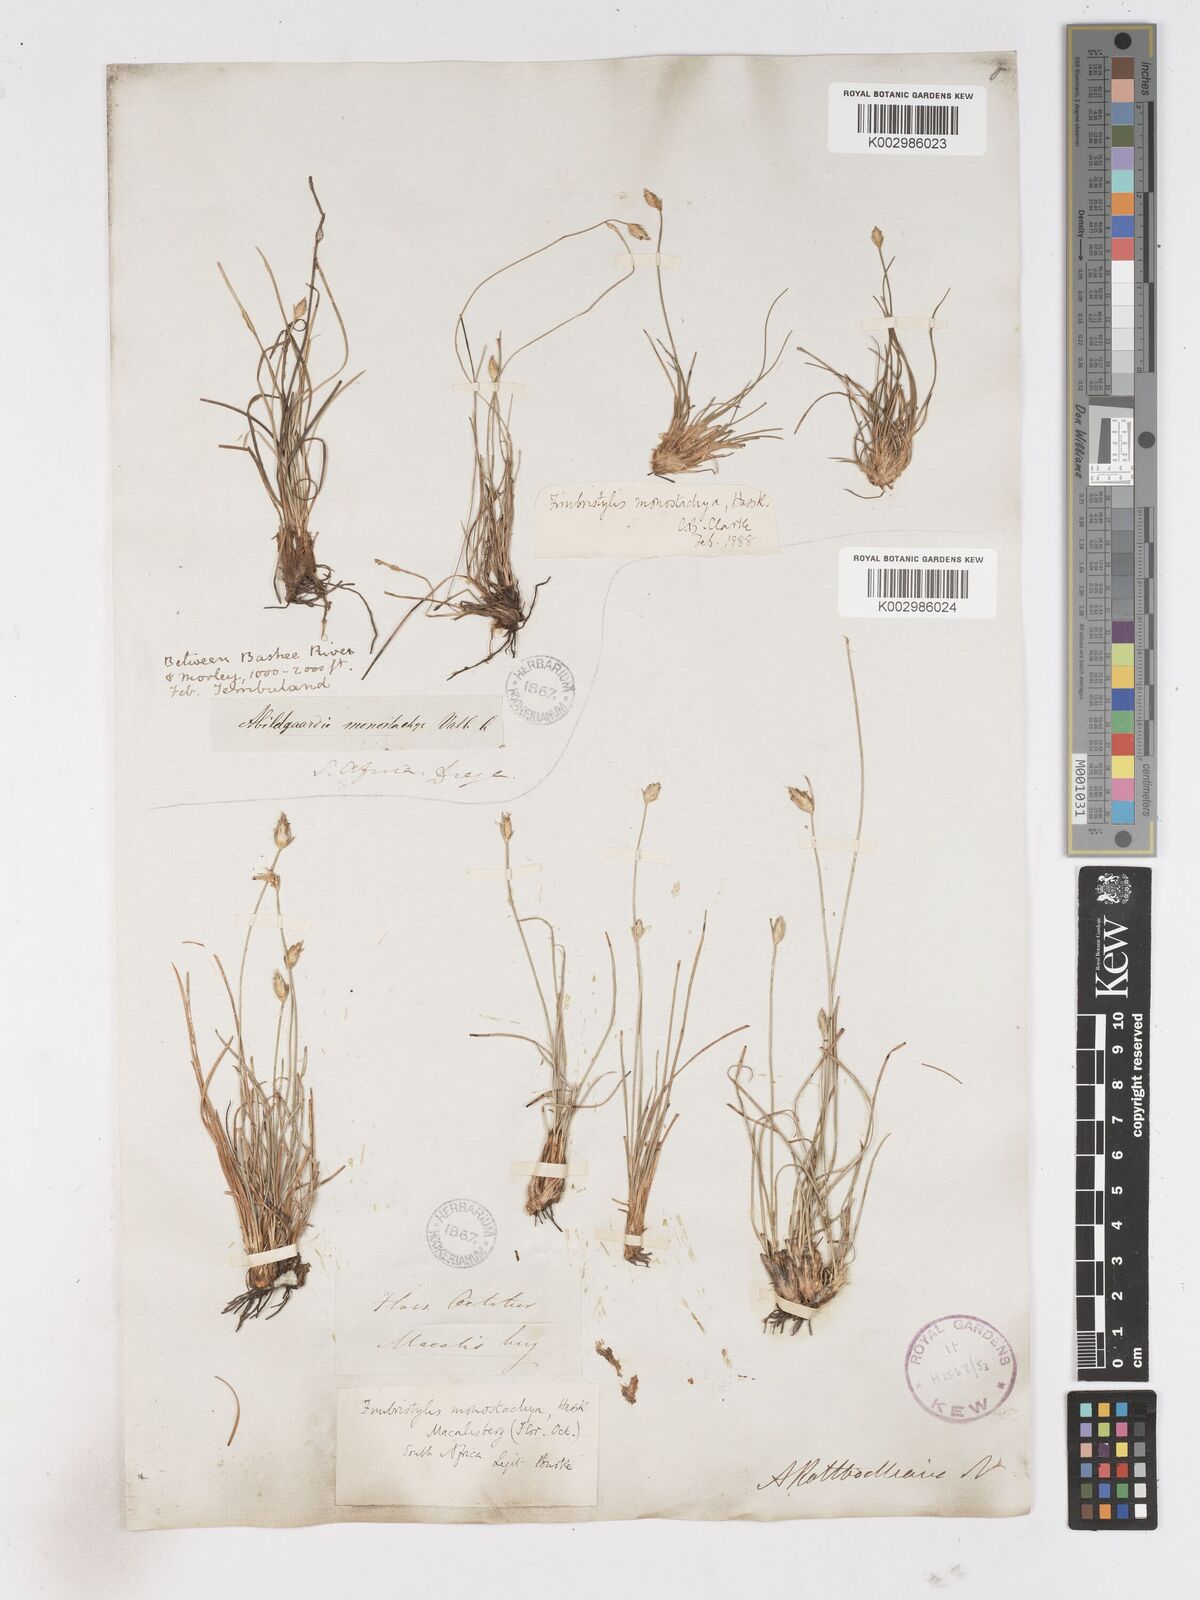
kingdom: Plantae
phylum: Tracheophyta
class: Liliopsida
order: Poales
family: Cyperaceae
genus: Abildgaardia
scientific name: Abildgaardia ovata
